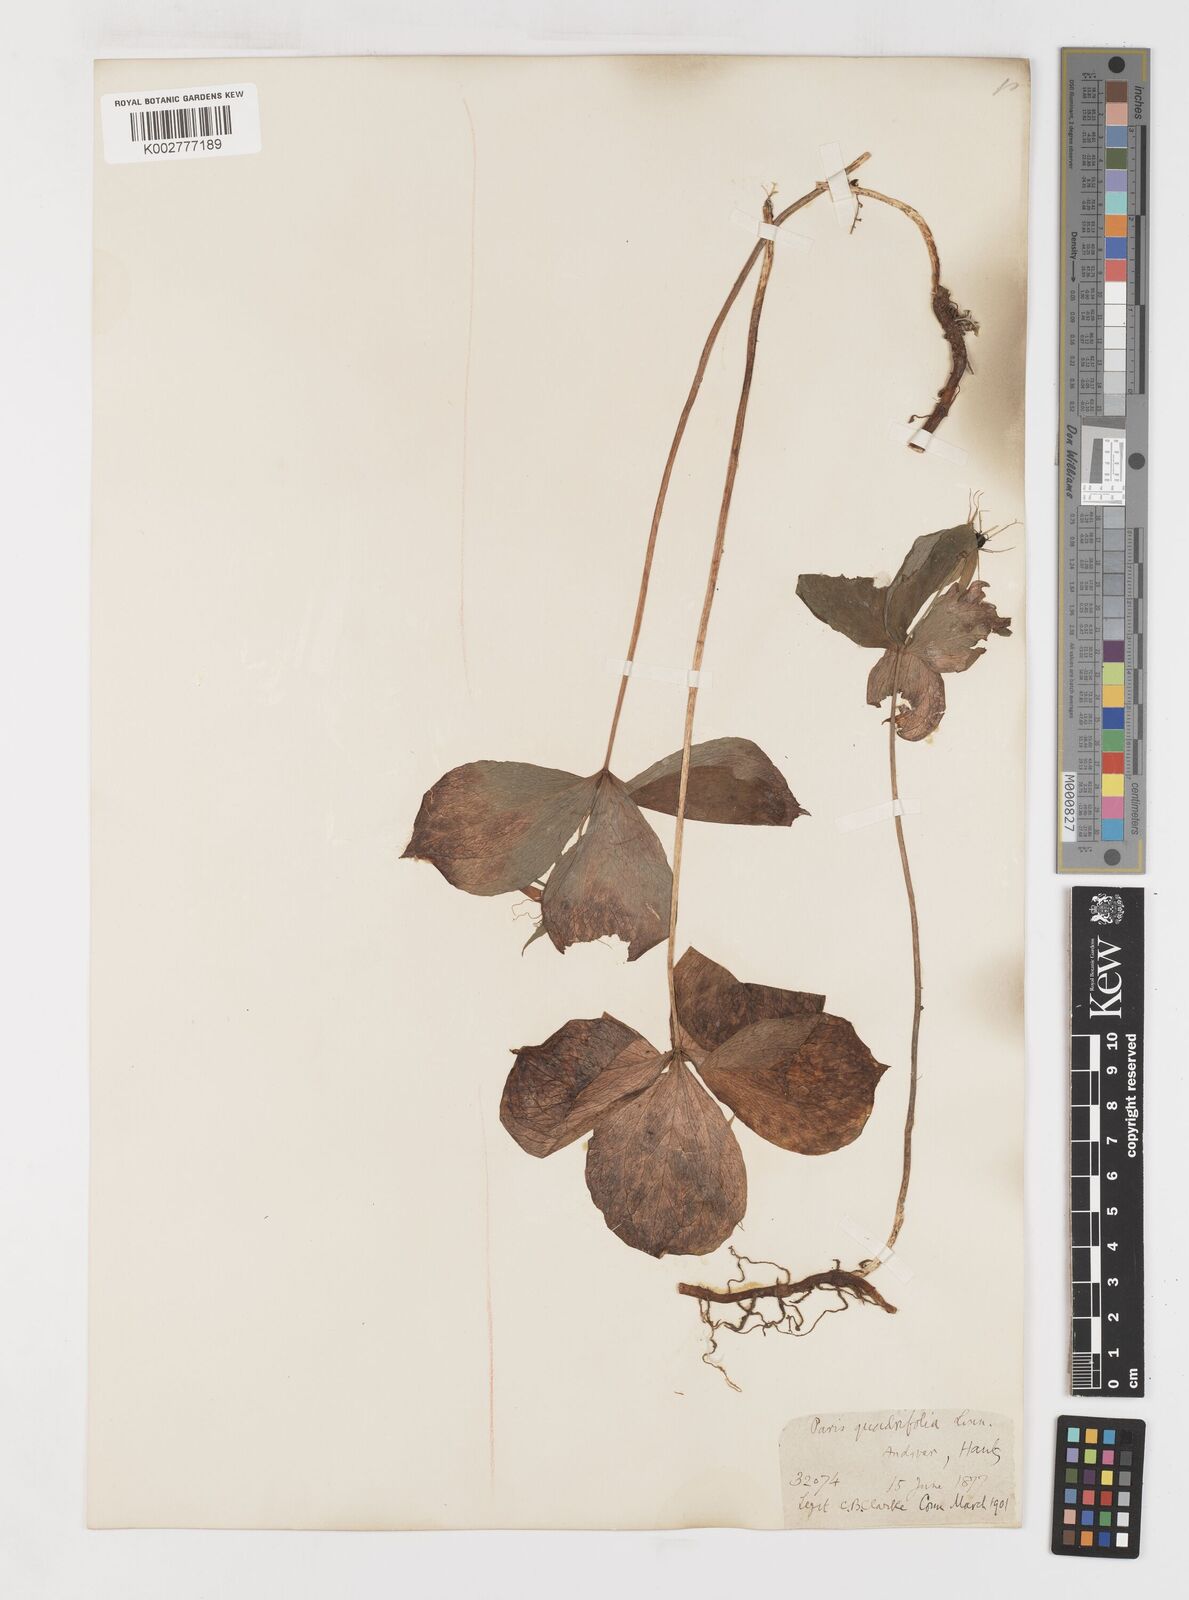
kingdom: Plantae
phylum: Tracheophyta
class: Liliopsida
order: Liliales
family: Melanthiaceae
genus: Paris
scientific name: Paris quadrifolia
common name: Herb-paris
